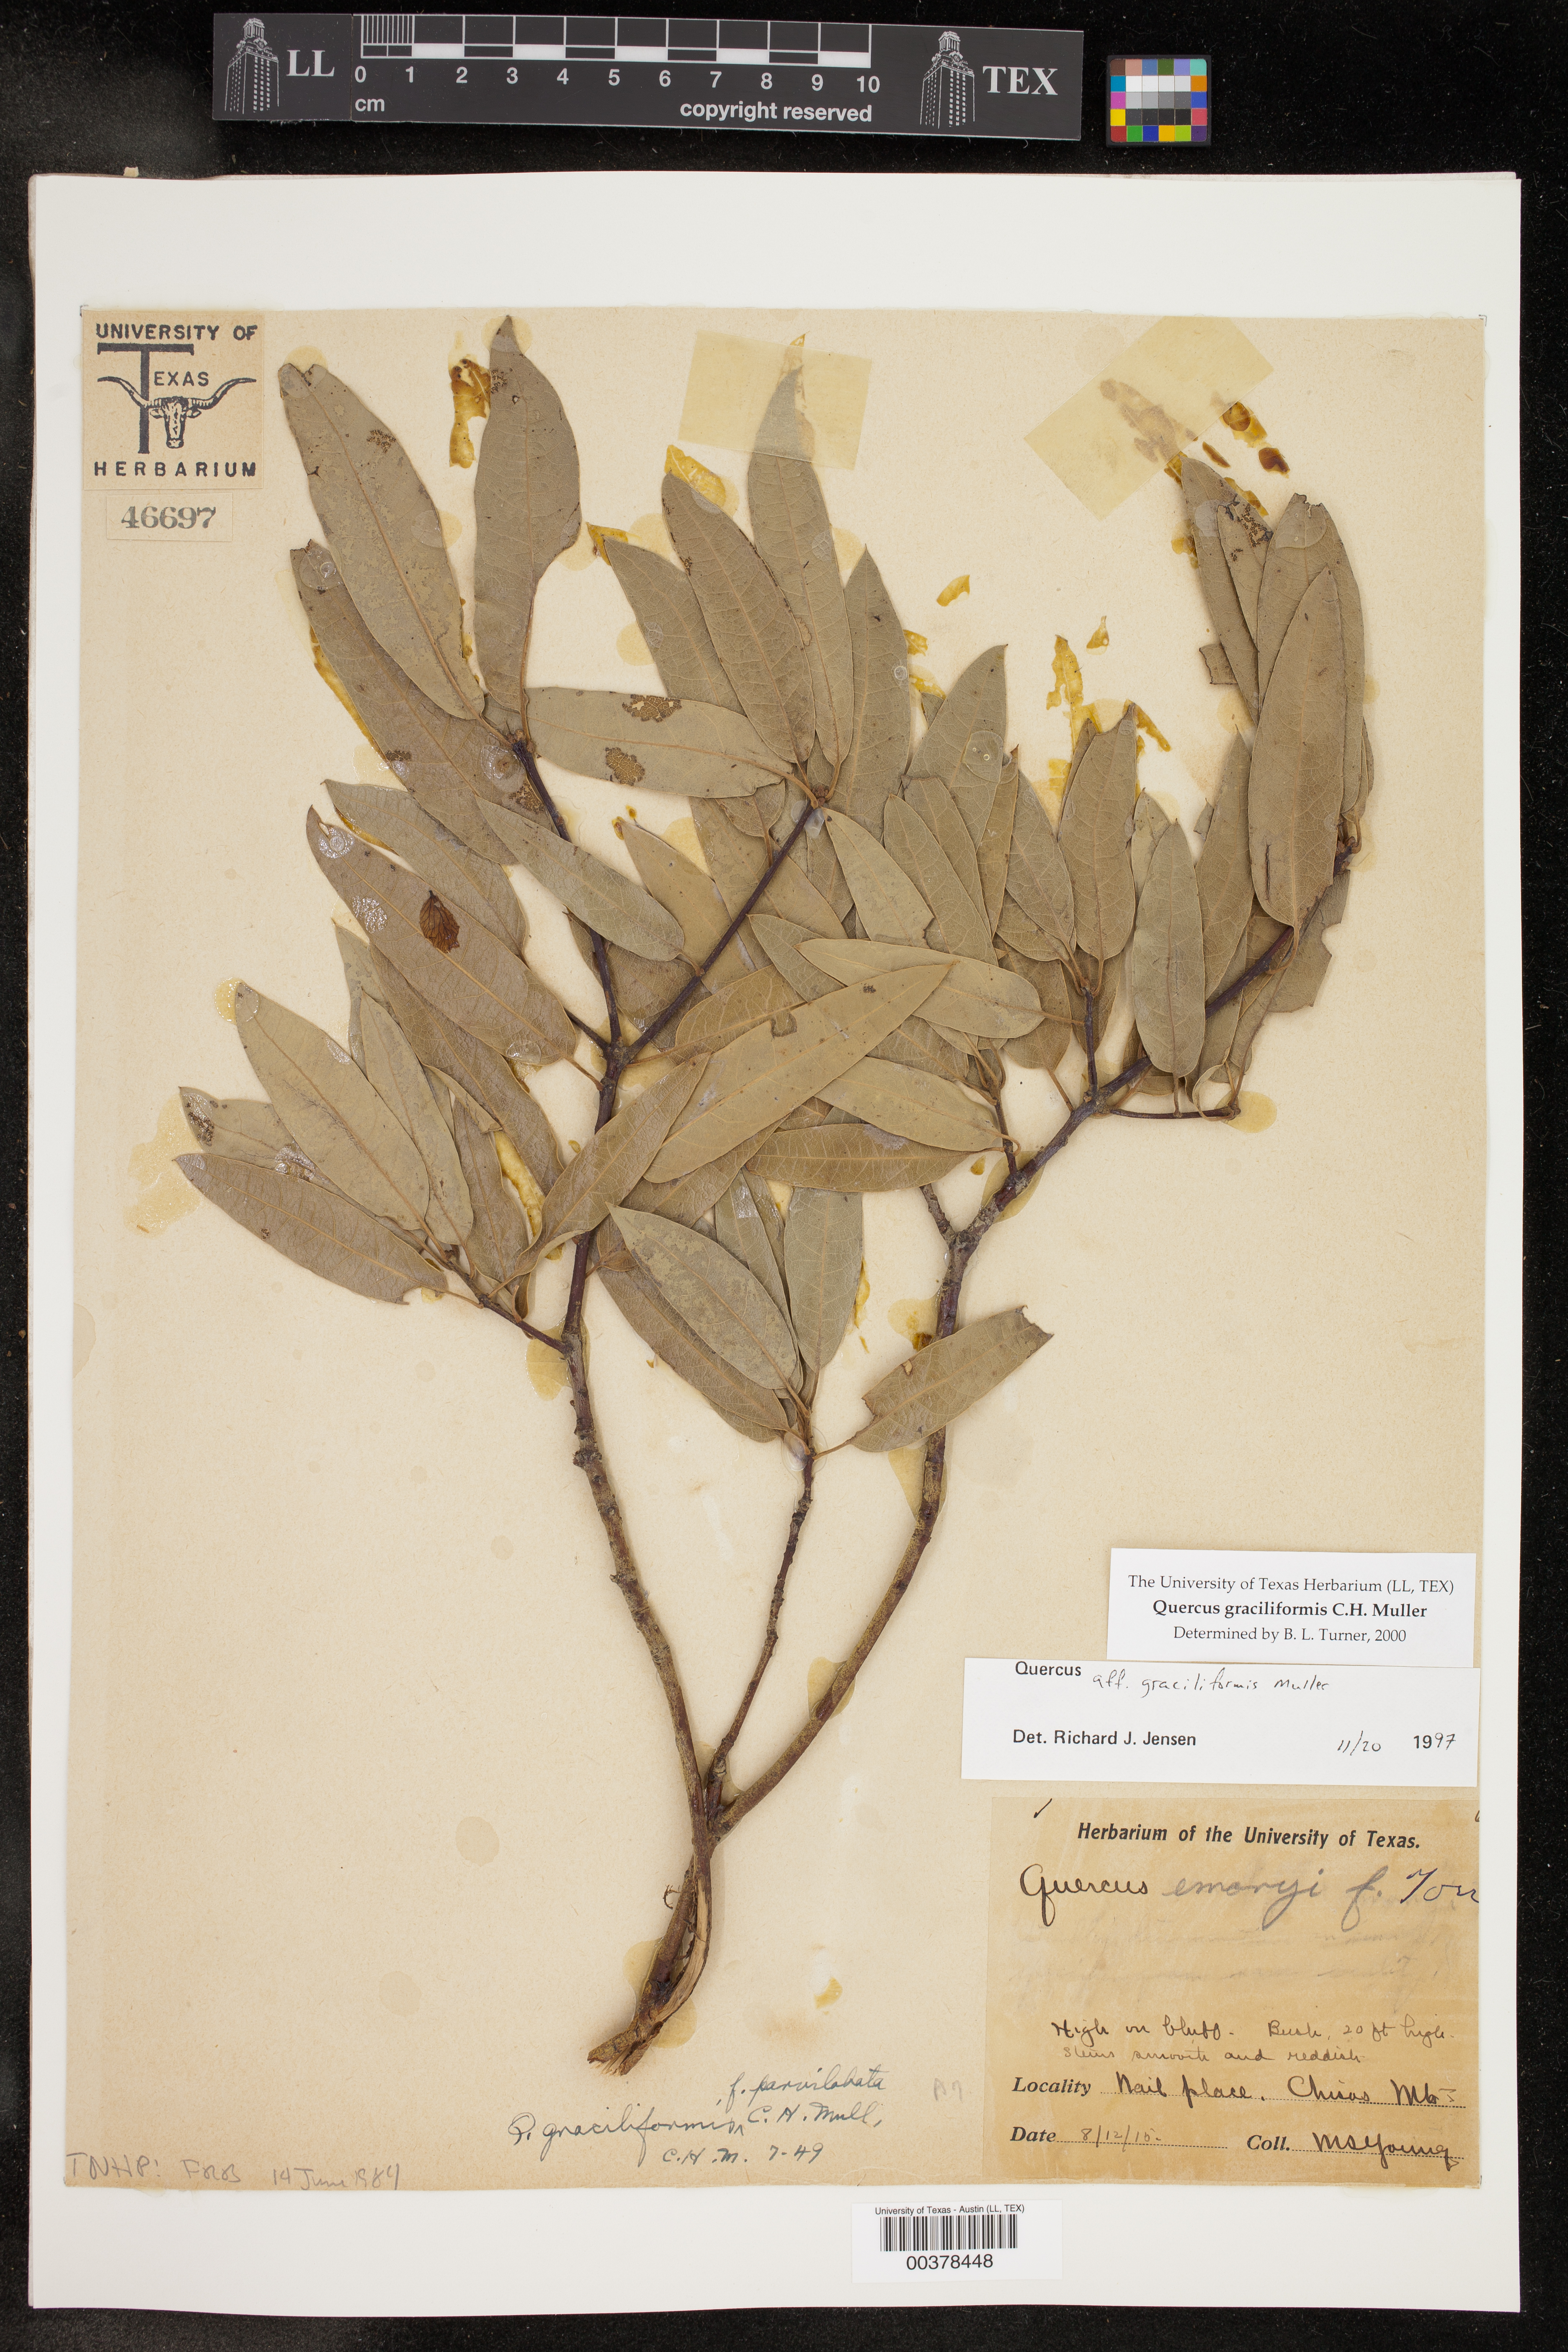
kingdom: Plantae
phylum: Tracheophyta
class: Magnoliopsida
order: Fagales
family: Fagaceae
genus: Quercus
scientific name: Quercus canbyi
